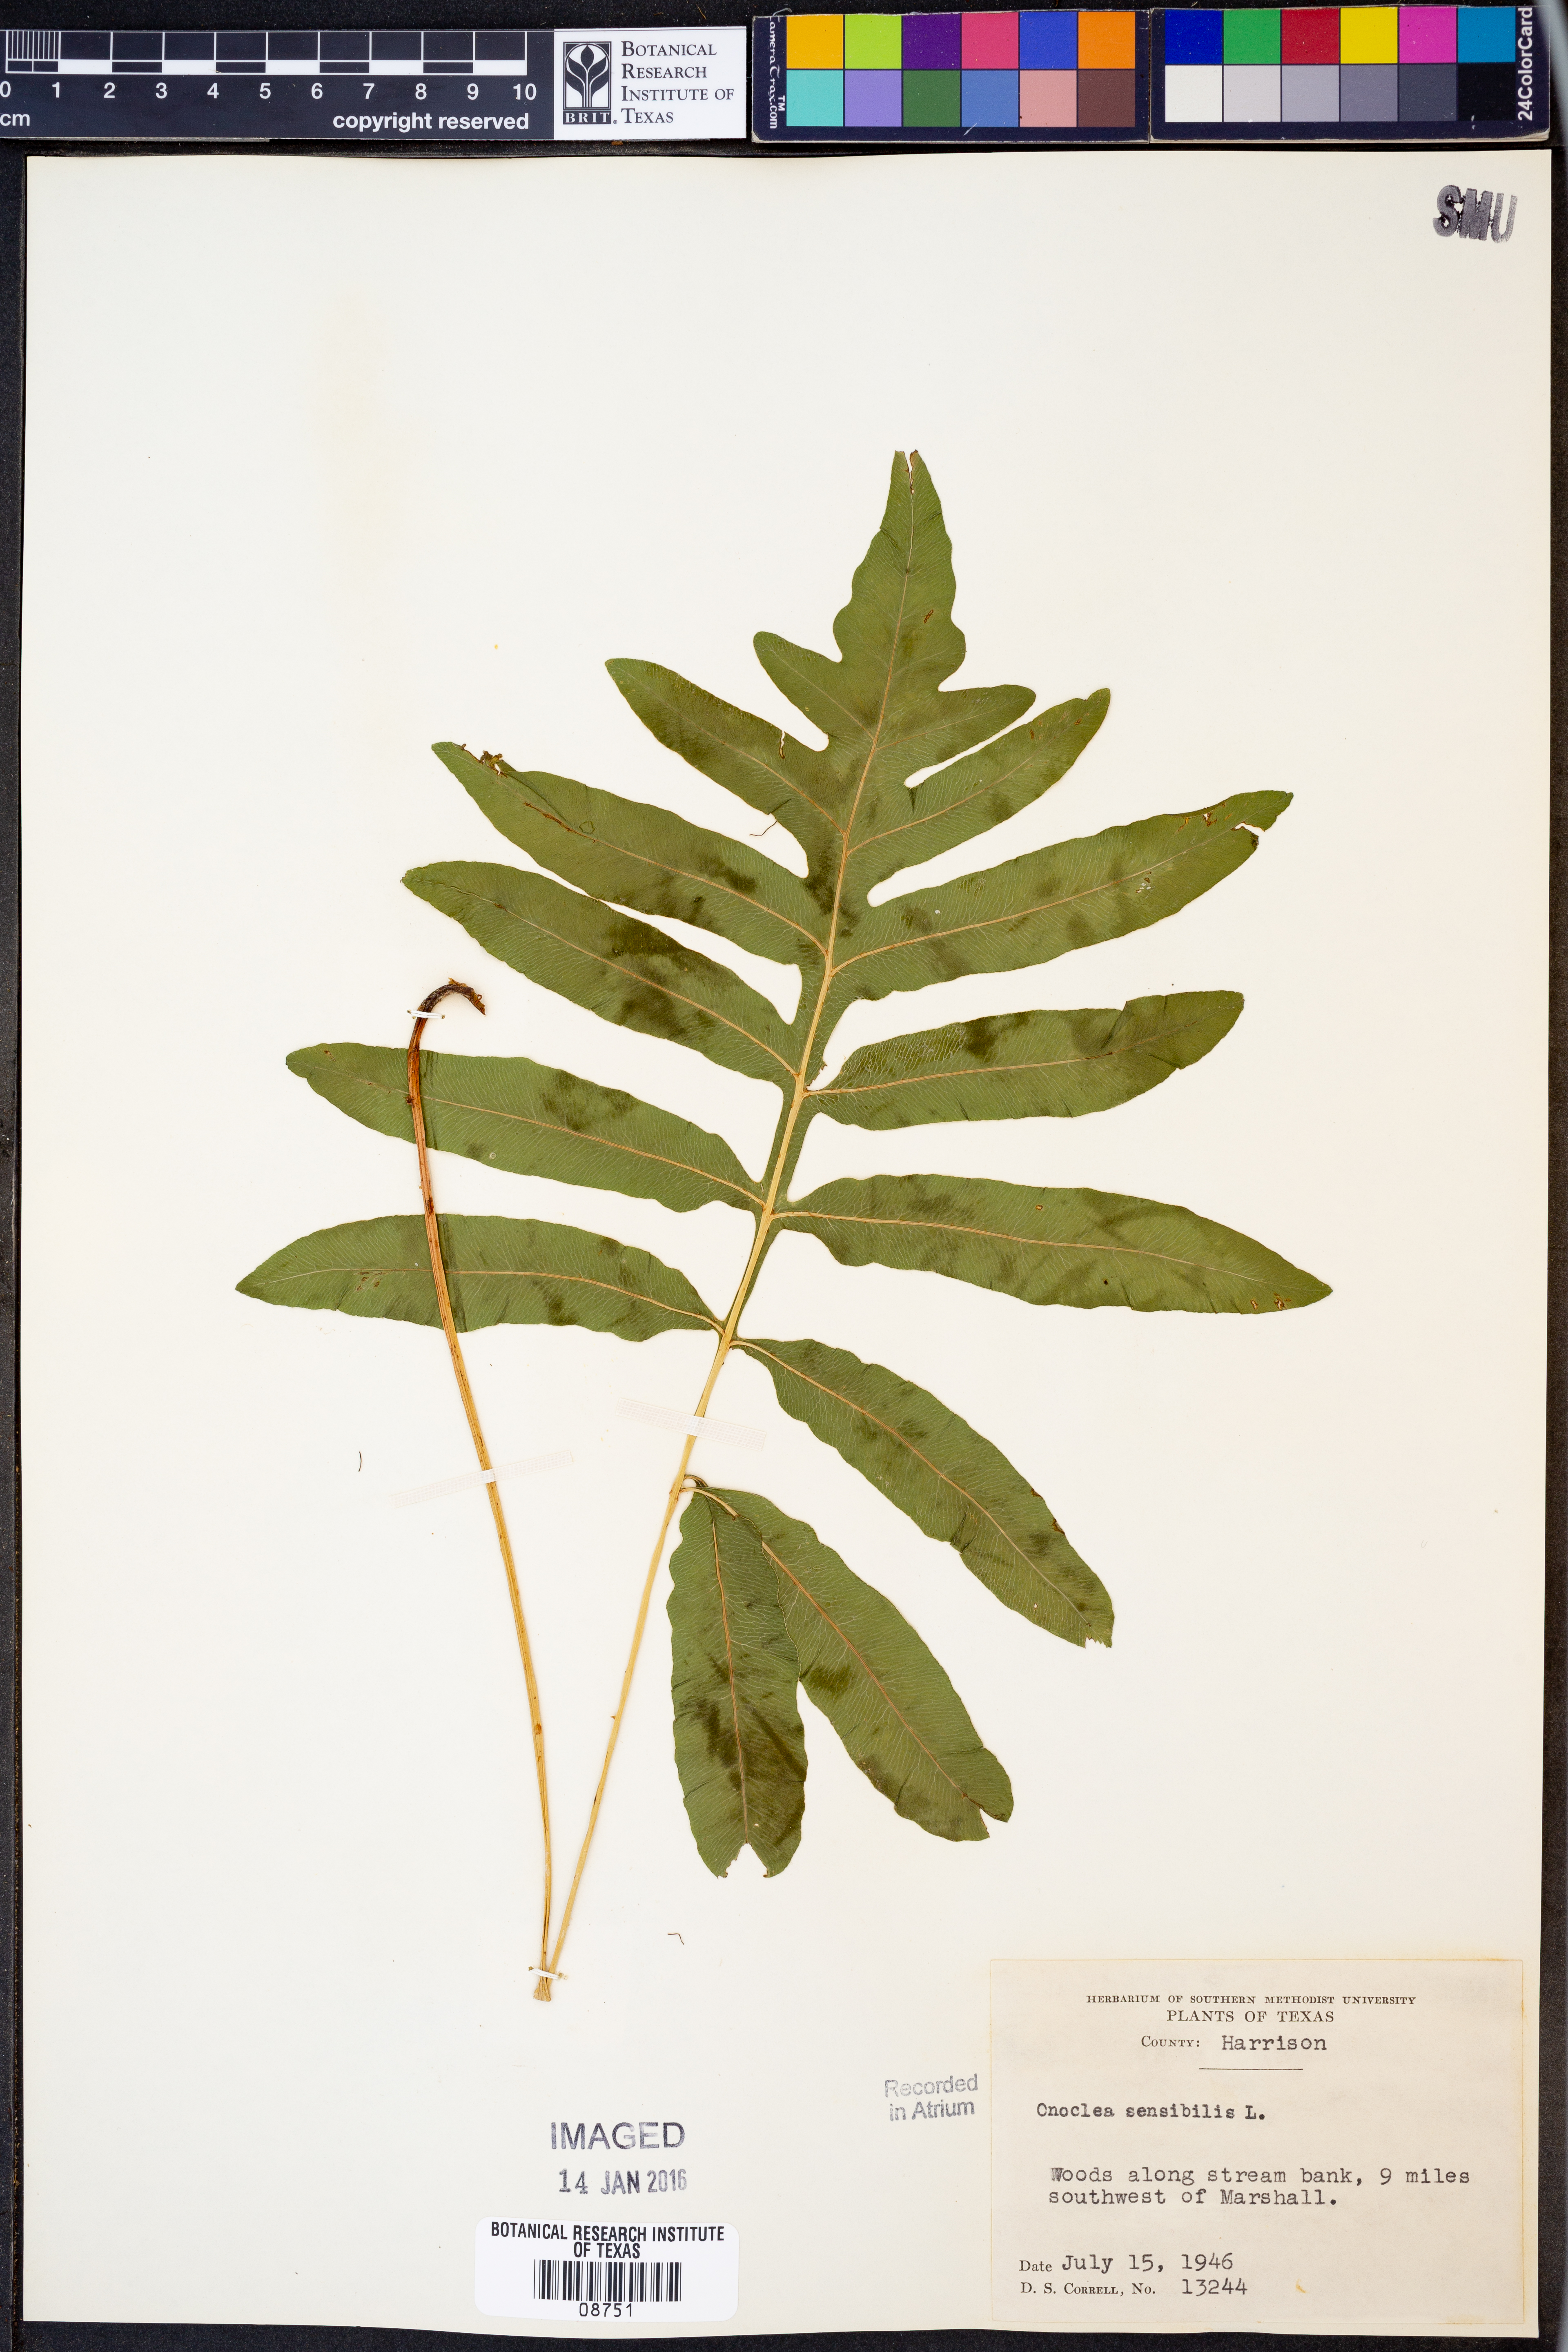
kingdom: Plantae
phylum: Tracheophyta
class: Polypodiopsida
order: Polypodiales
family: Onocleaceae
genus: Onoclea
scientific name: Onoclea sensibilis
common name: Sensitive fern
